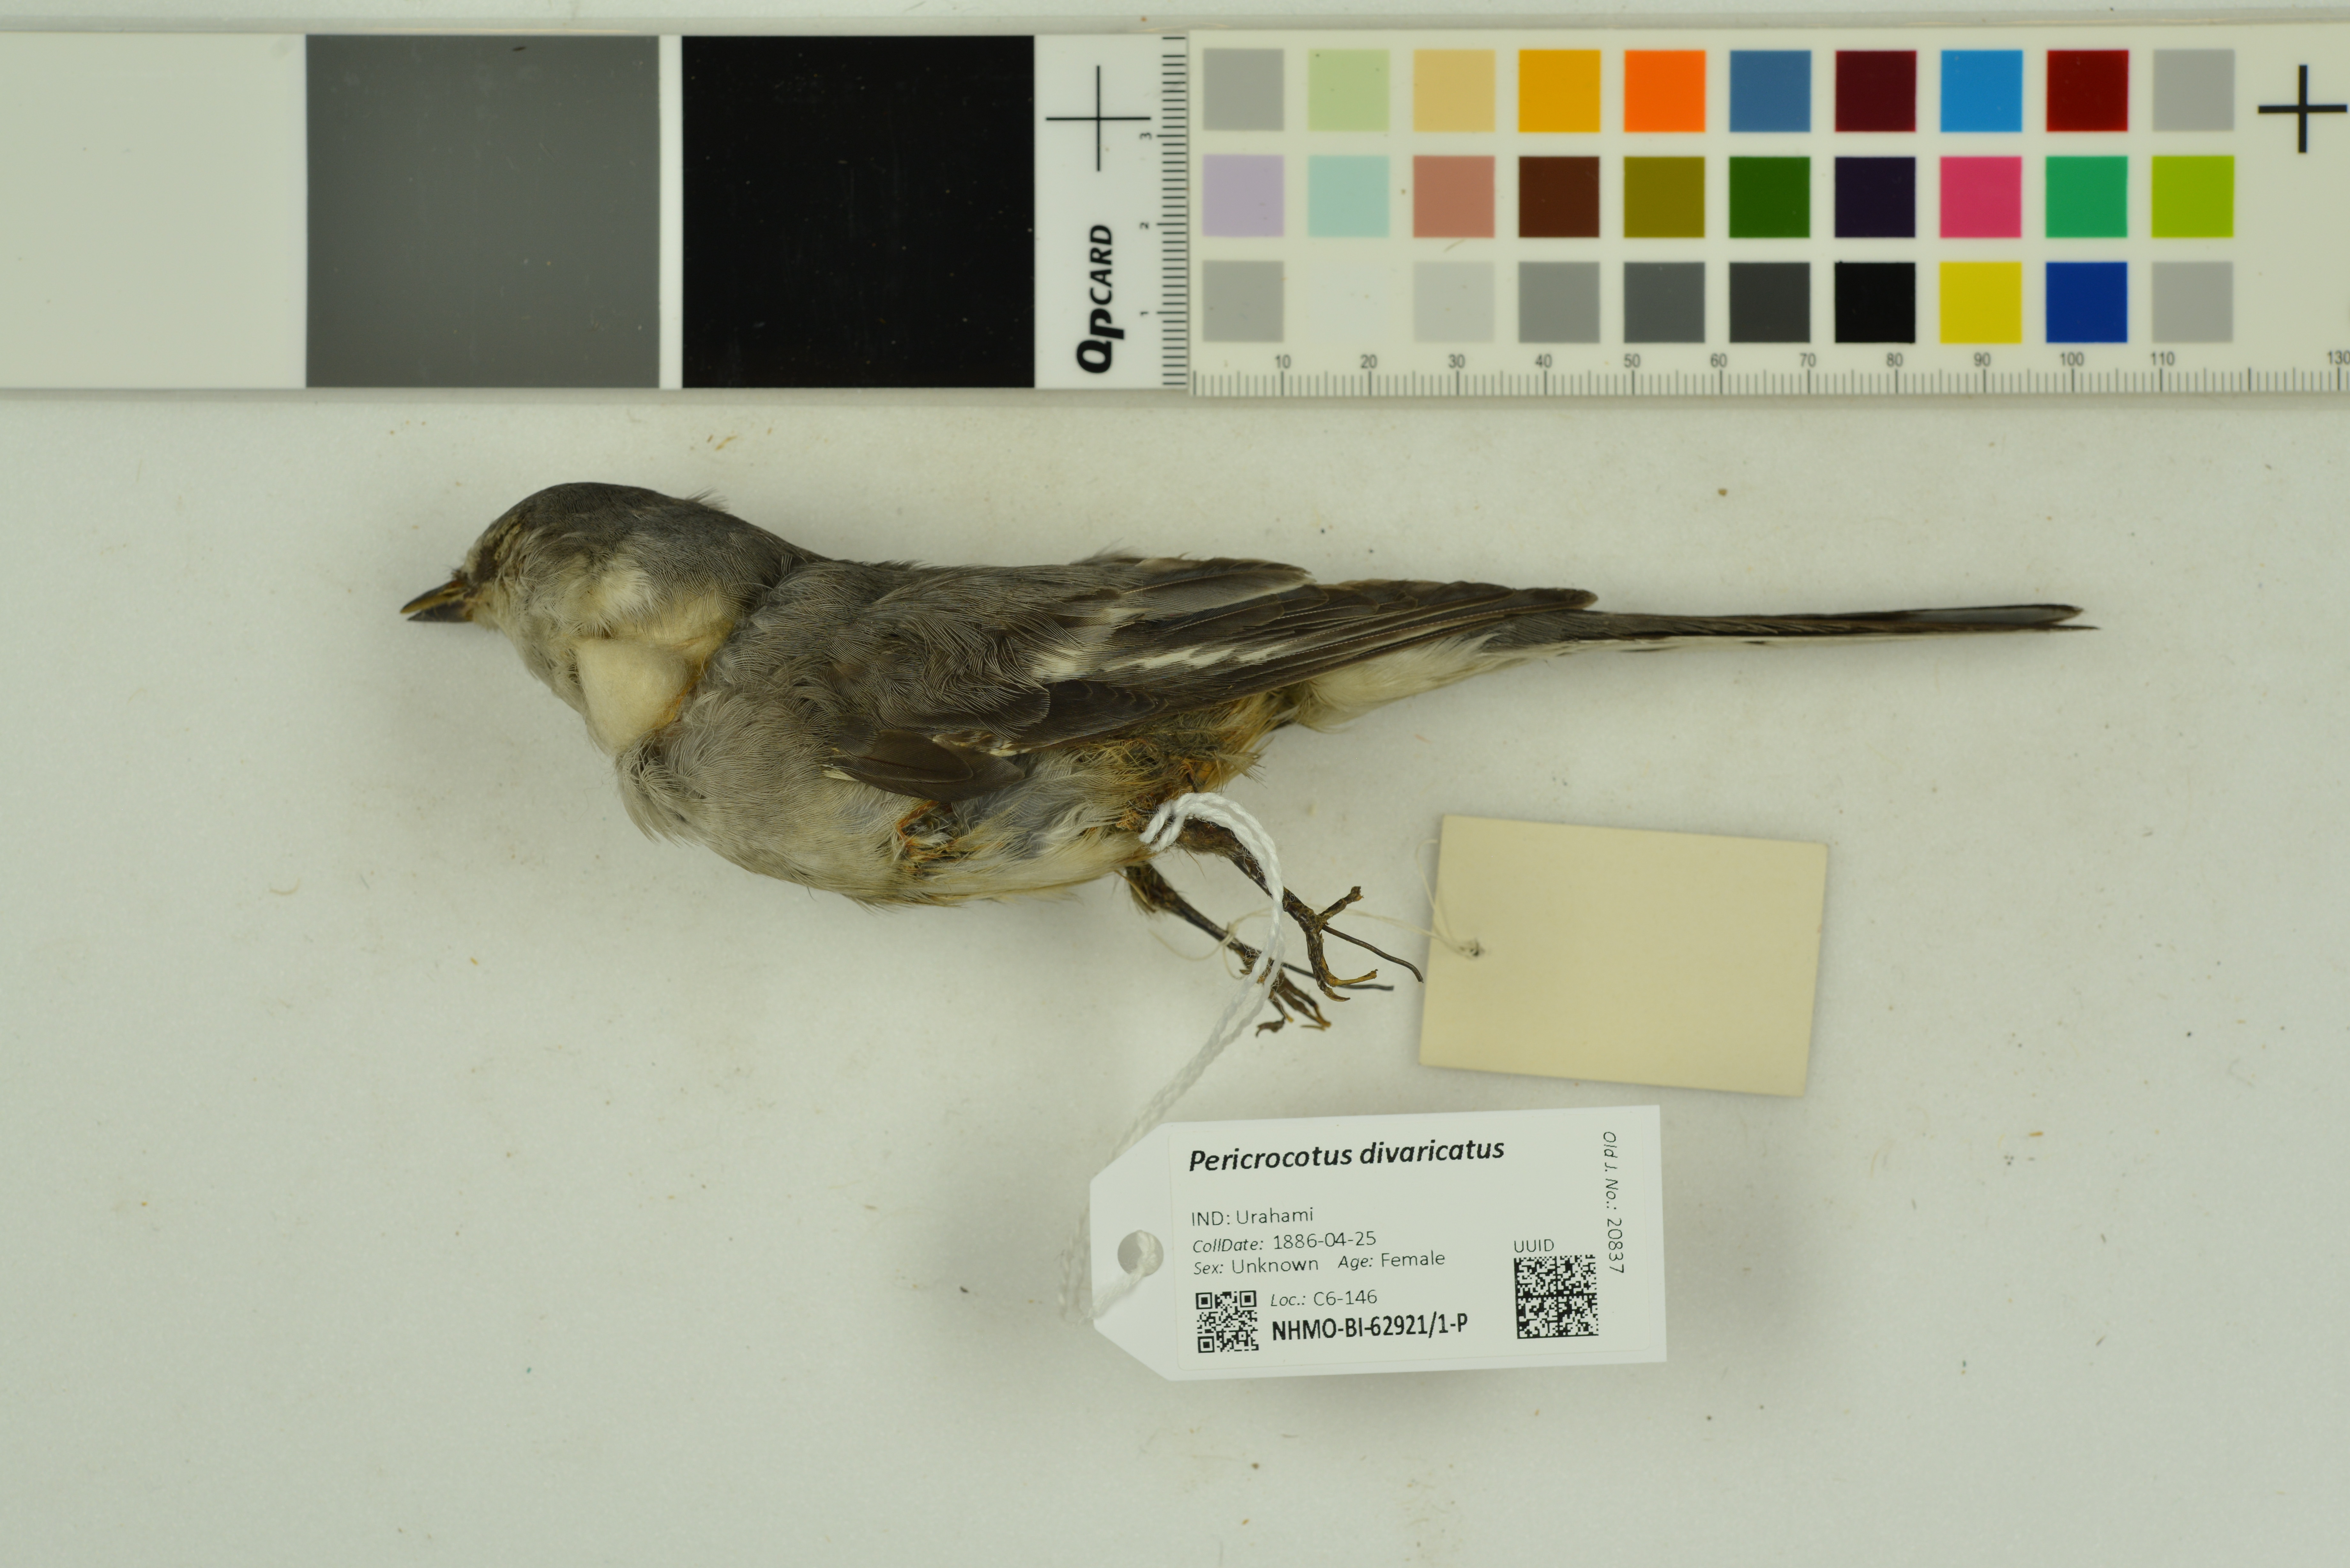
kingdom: Animalia
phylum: Chordata
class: Aves
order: Passeriformes
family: Campephagidae
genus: Pericrocotus
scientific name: Pericrocotus divaricatus
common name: Ashy minivet
